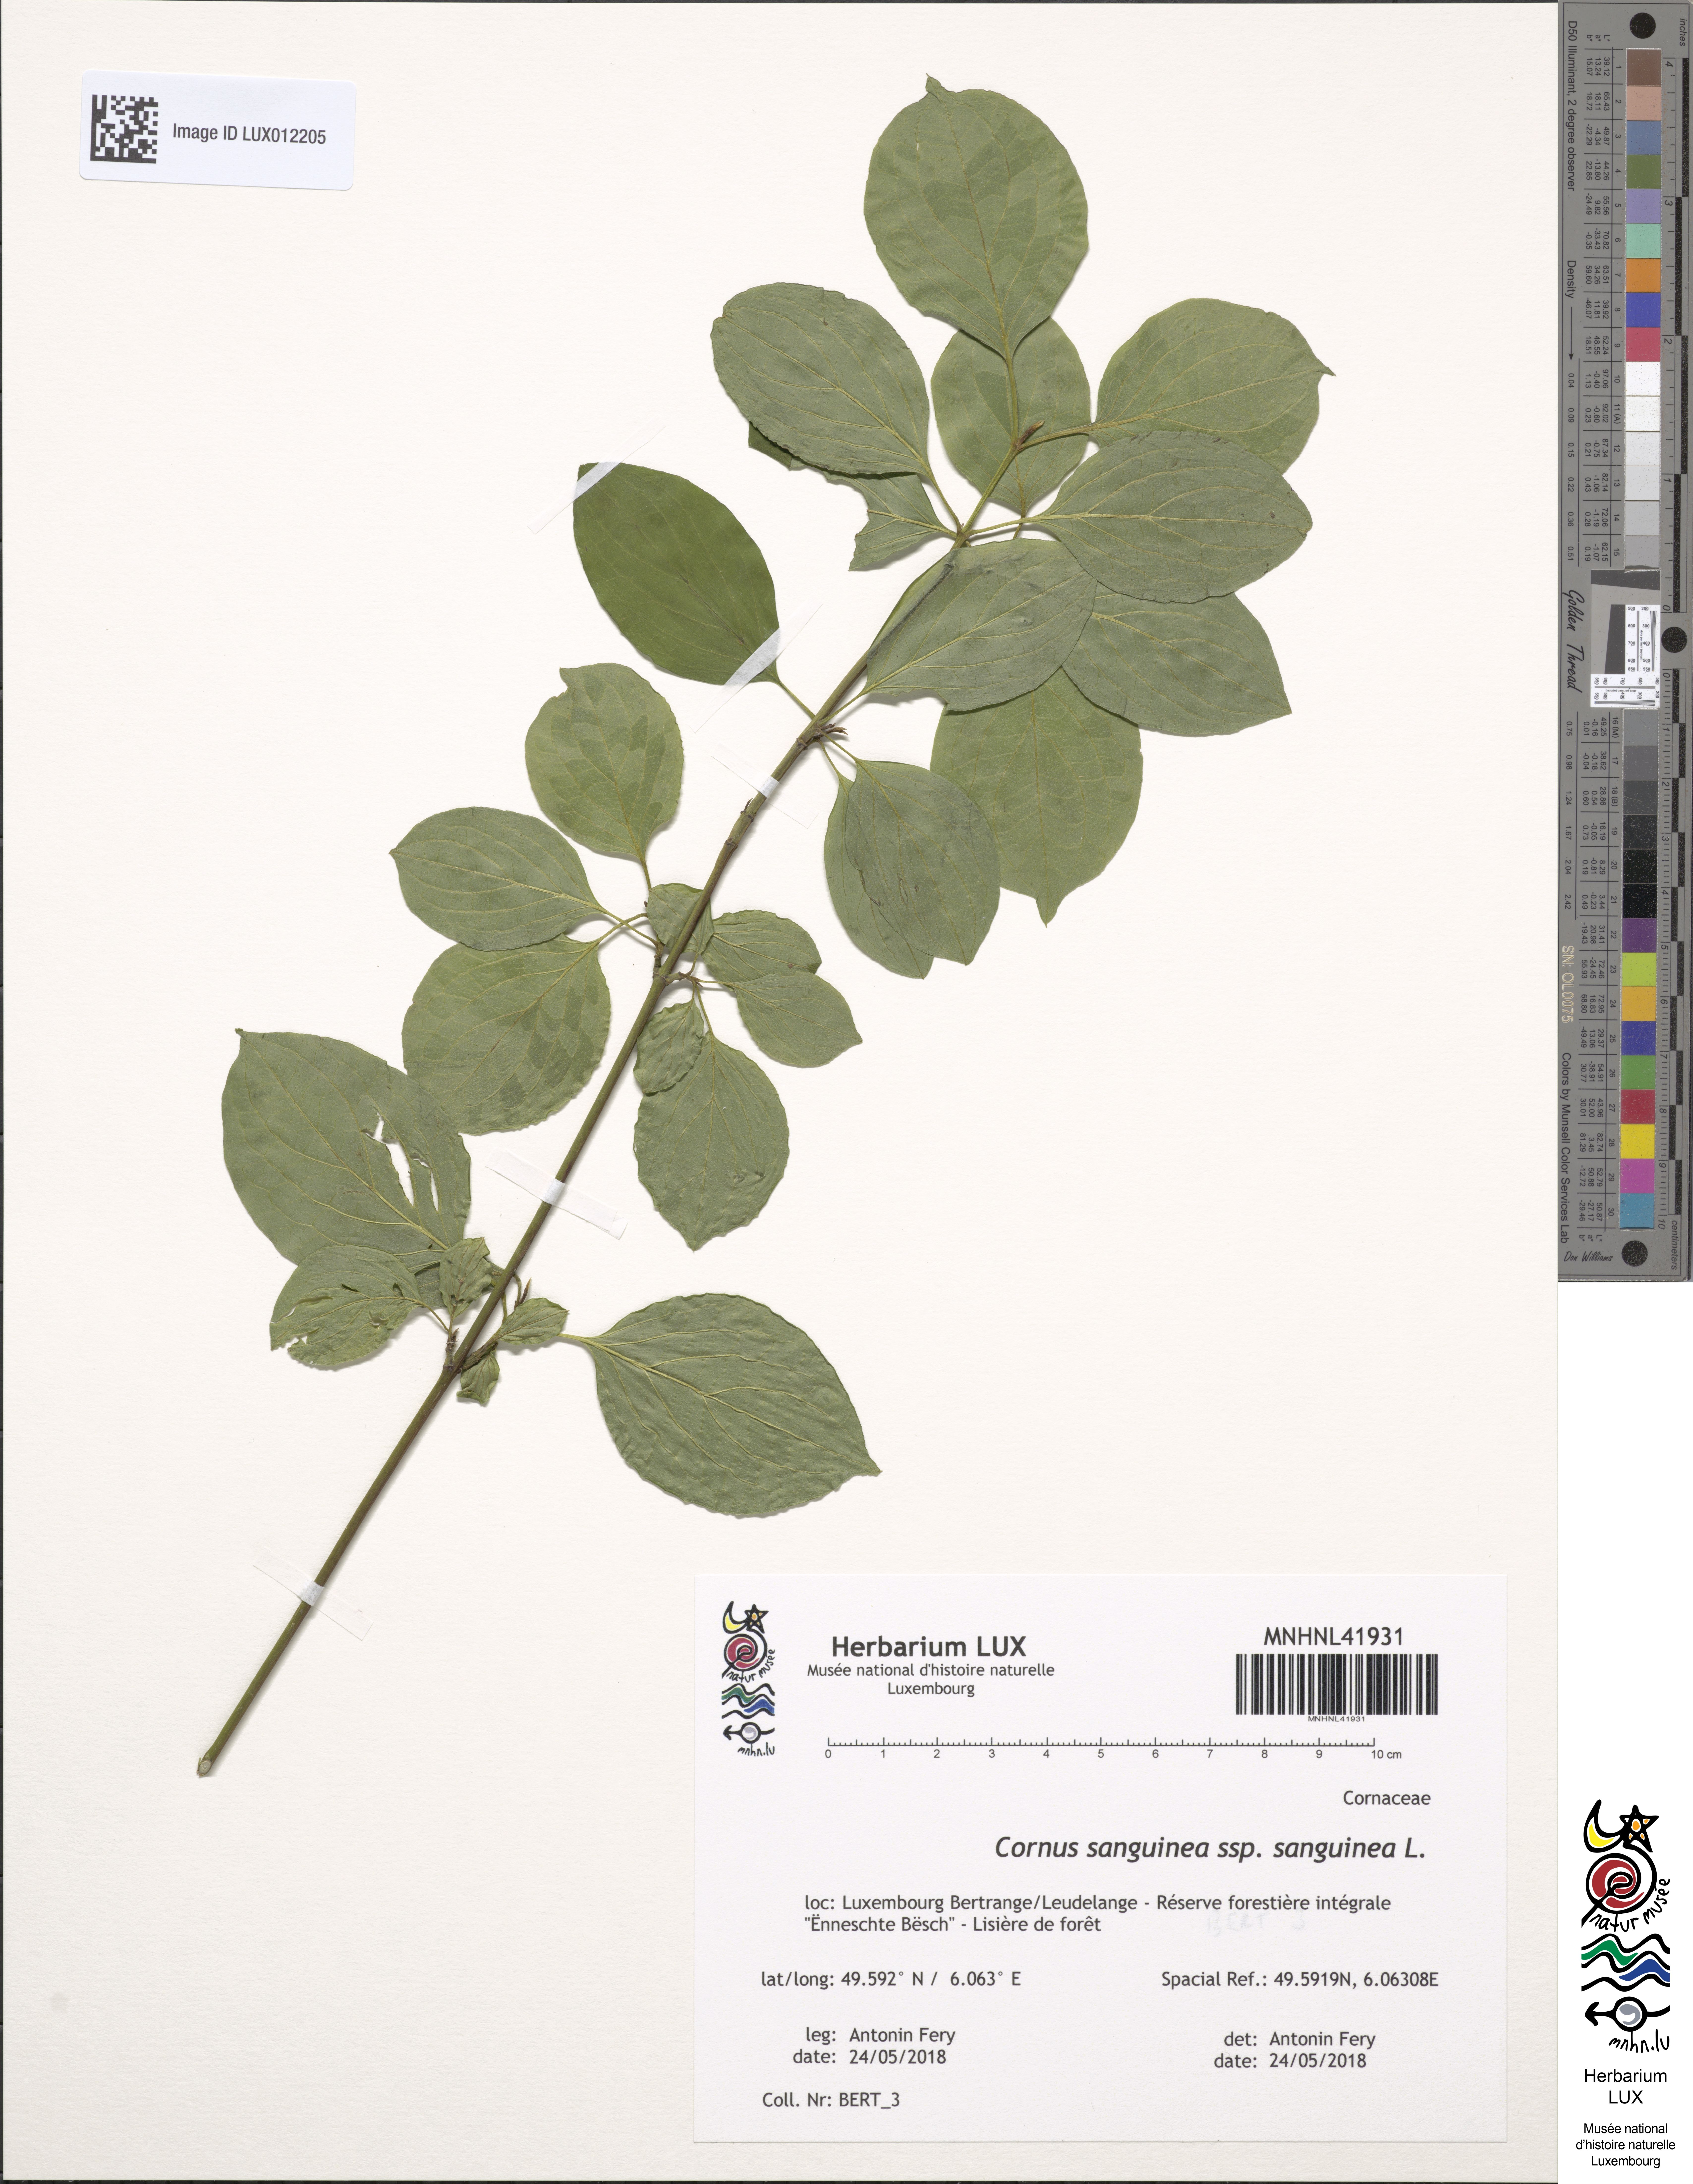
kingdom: Plantae
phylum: Tracheophyta
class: Magnoliopsida
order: Cornales
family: Cornaceae
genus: Cornus
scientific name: Cornus sanguinea
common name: Dogwood
